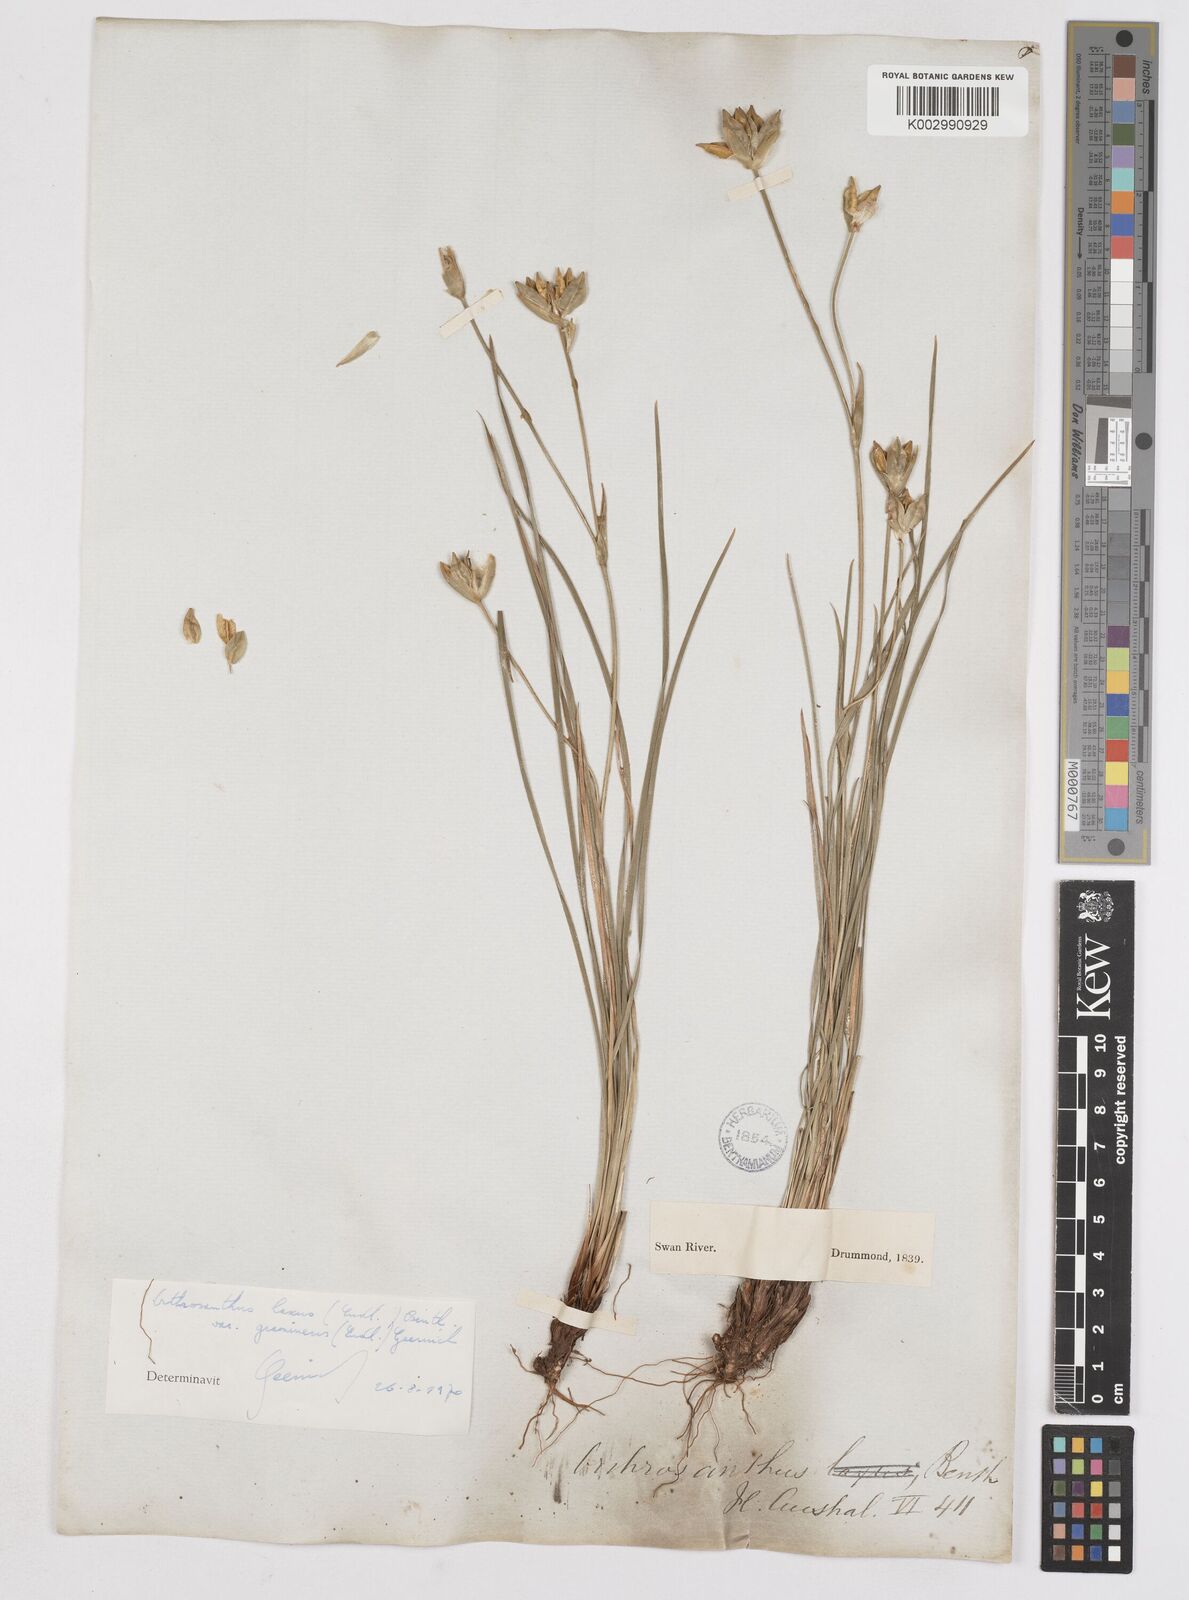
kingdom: Plantae
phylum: Tracheophyta
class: Liliopsida
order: Asparagales
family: Iridaceae
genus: Orthrosanthus
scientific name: Orthrosanthus laxus
